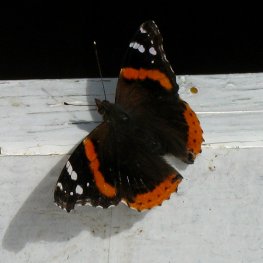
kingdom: Animalia
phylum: Arthropoda
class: Insecta
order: Lepidoptera
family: Nymphalidae
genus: Vanessa
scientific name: Vanessa atalanta
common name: Red Admiral
